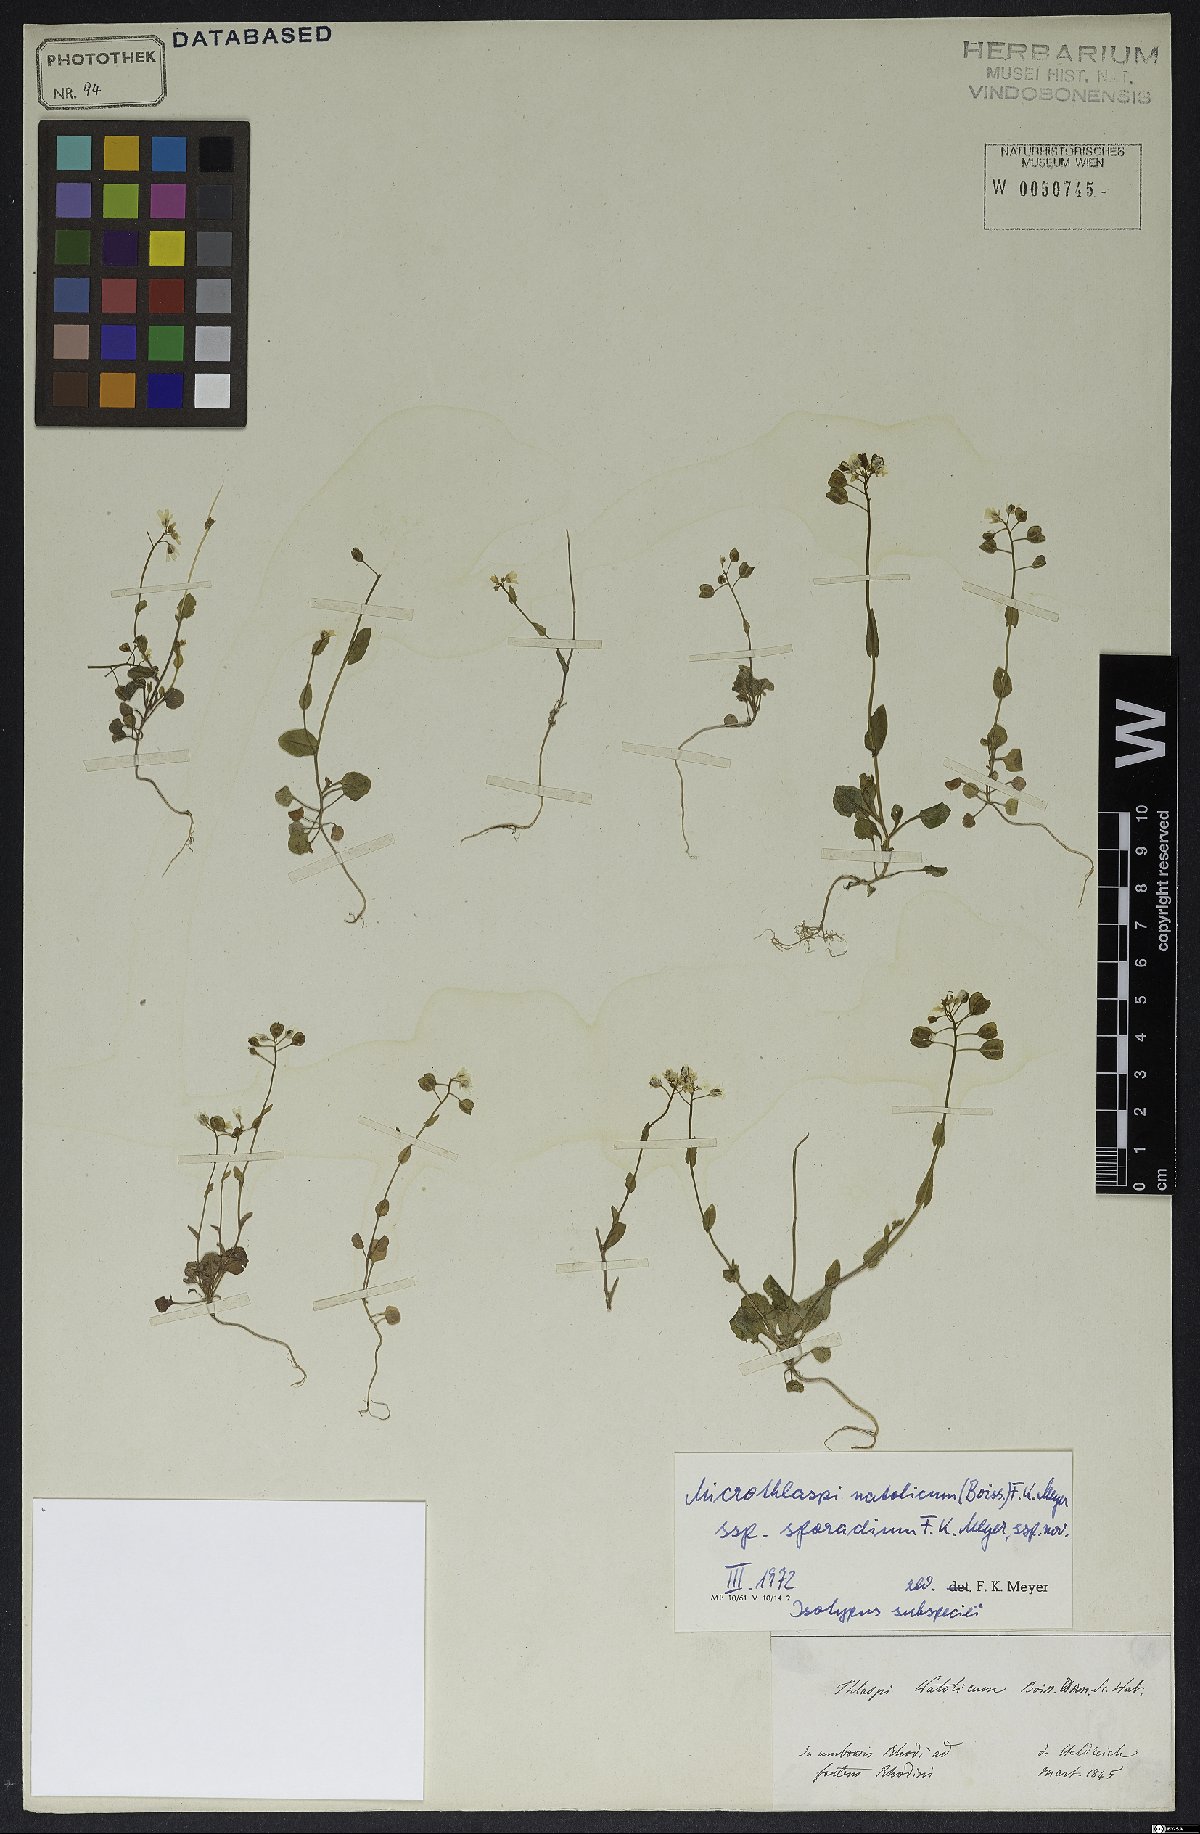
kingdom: Plantae
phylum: Tracheophyta
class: Magnoliopsida
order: Brassicales
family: Brassicaceae
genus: Noccaea
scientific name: Noccaea natolica
